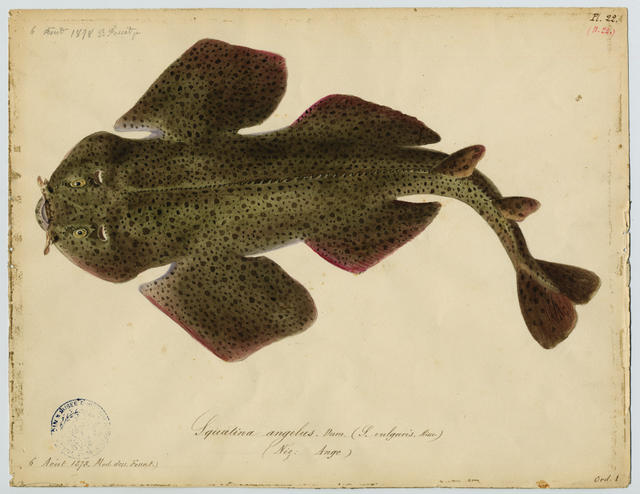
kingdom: Animalia
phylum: Chordata
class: Elasmobranchii
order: Squatiniformes
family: Squatinidae
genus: Squatina
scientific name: Squatina aculeata
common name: Sawback angelshark
